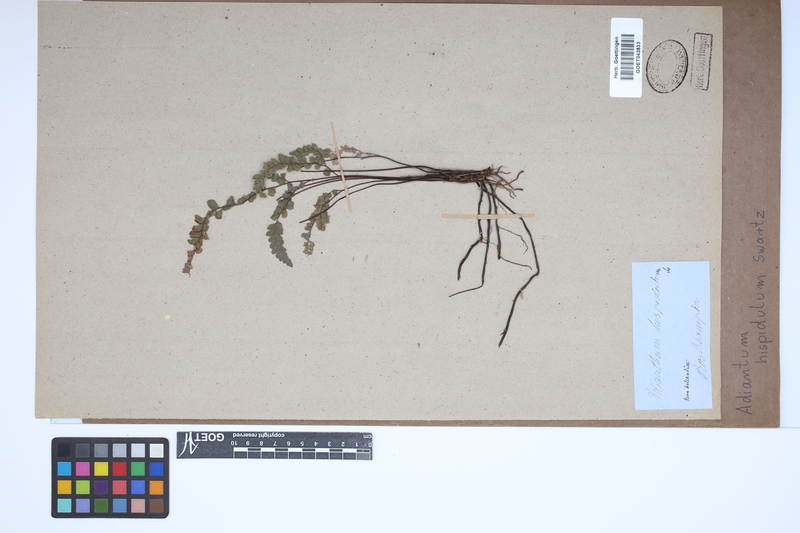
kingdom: Plantae
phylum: Tracheophyta
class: Polypodiopsida
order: Polypodiales
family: Pteridaceae
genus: Adiantum
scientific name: Adiantum hispidulum
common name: Rough maidenhair
